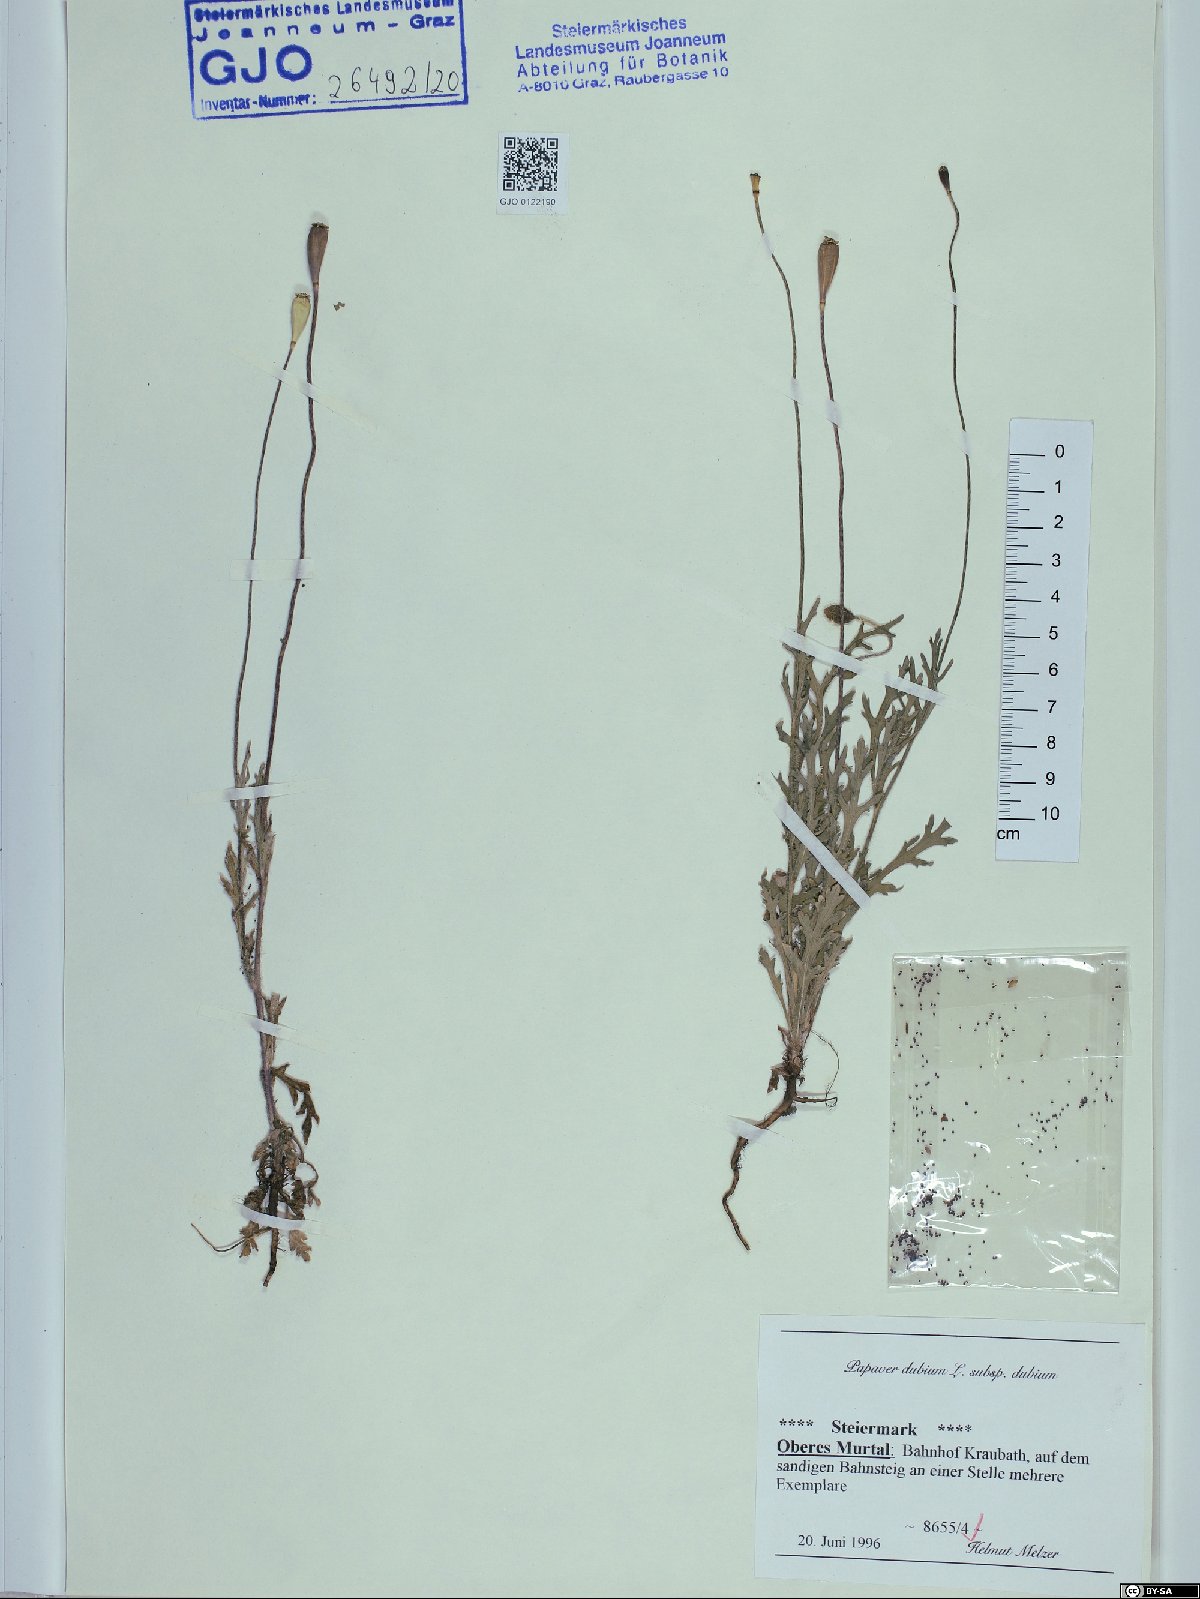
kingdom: Plantae
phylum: Tracheophyta
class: Magnoliopsida
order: Ranunculales
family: Papaveraceae
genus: Papaver
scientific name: Papaver dubium
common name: Long-headed poppy
